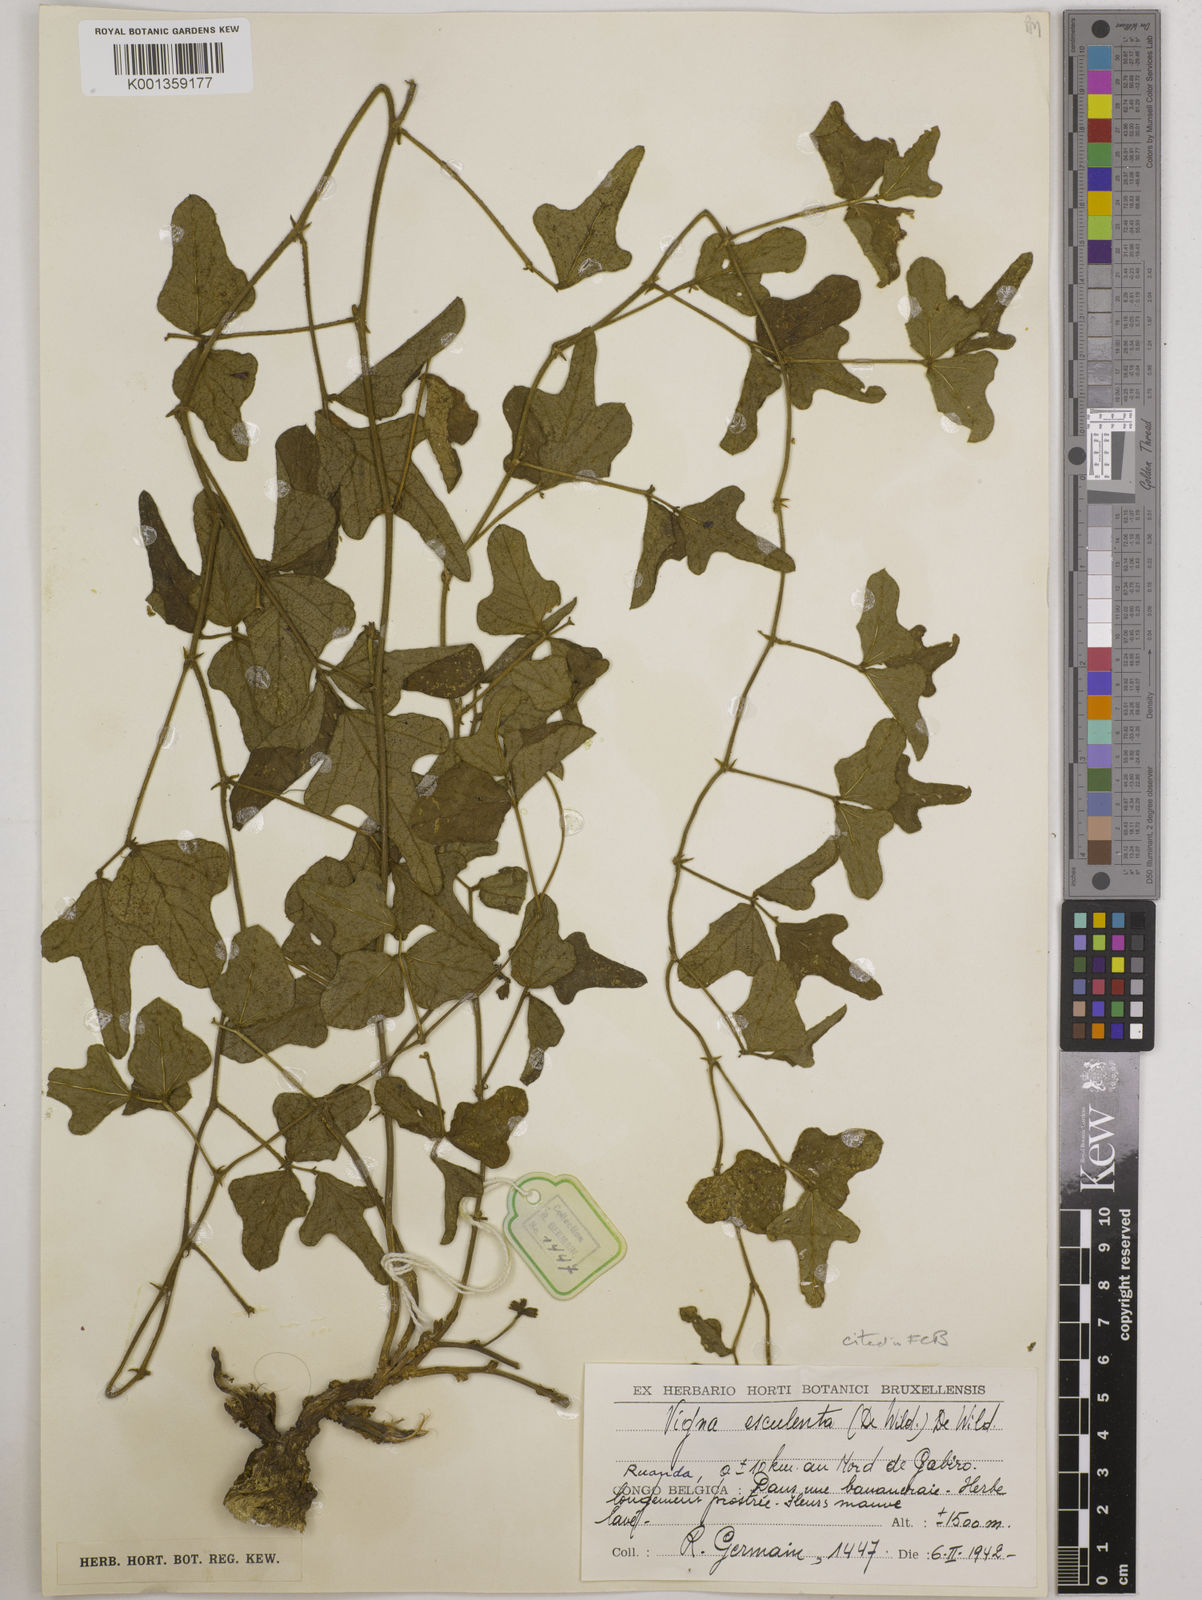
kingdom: Plantae
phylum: Tracheophyta
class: Magnoliopsida
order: Fabales
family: Fabaceae
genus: Vigna
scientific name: Vigna frutescens
